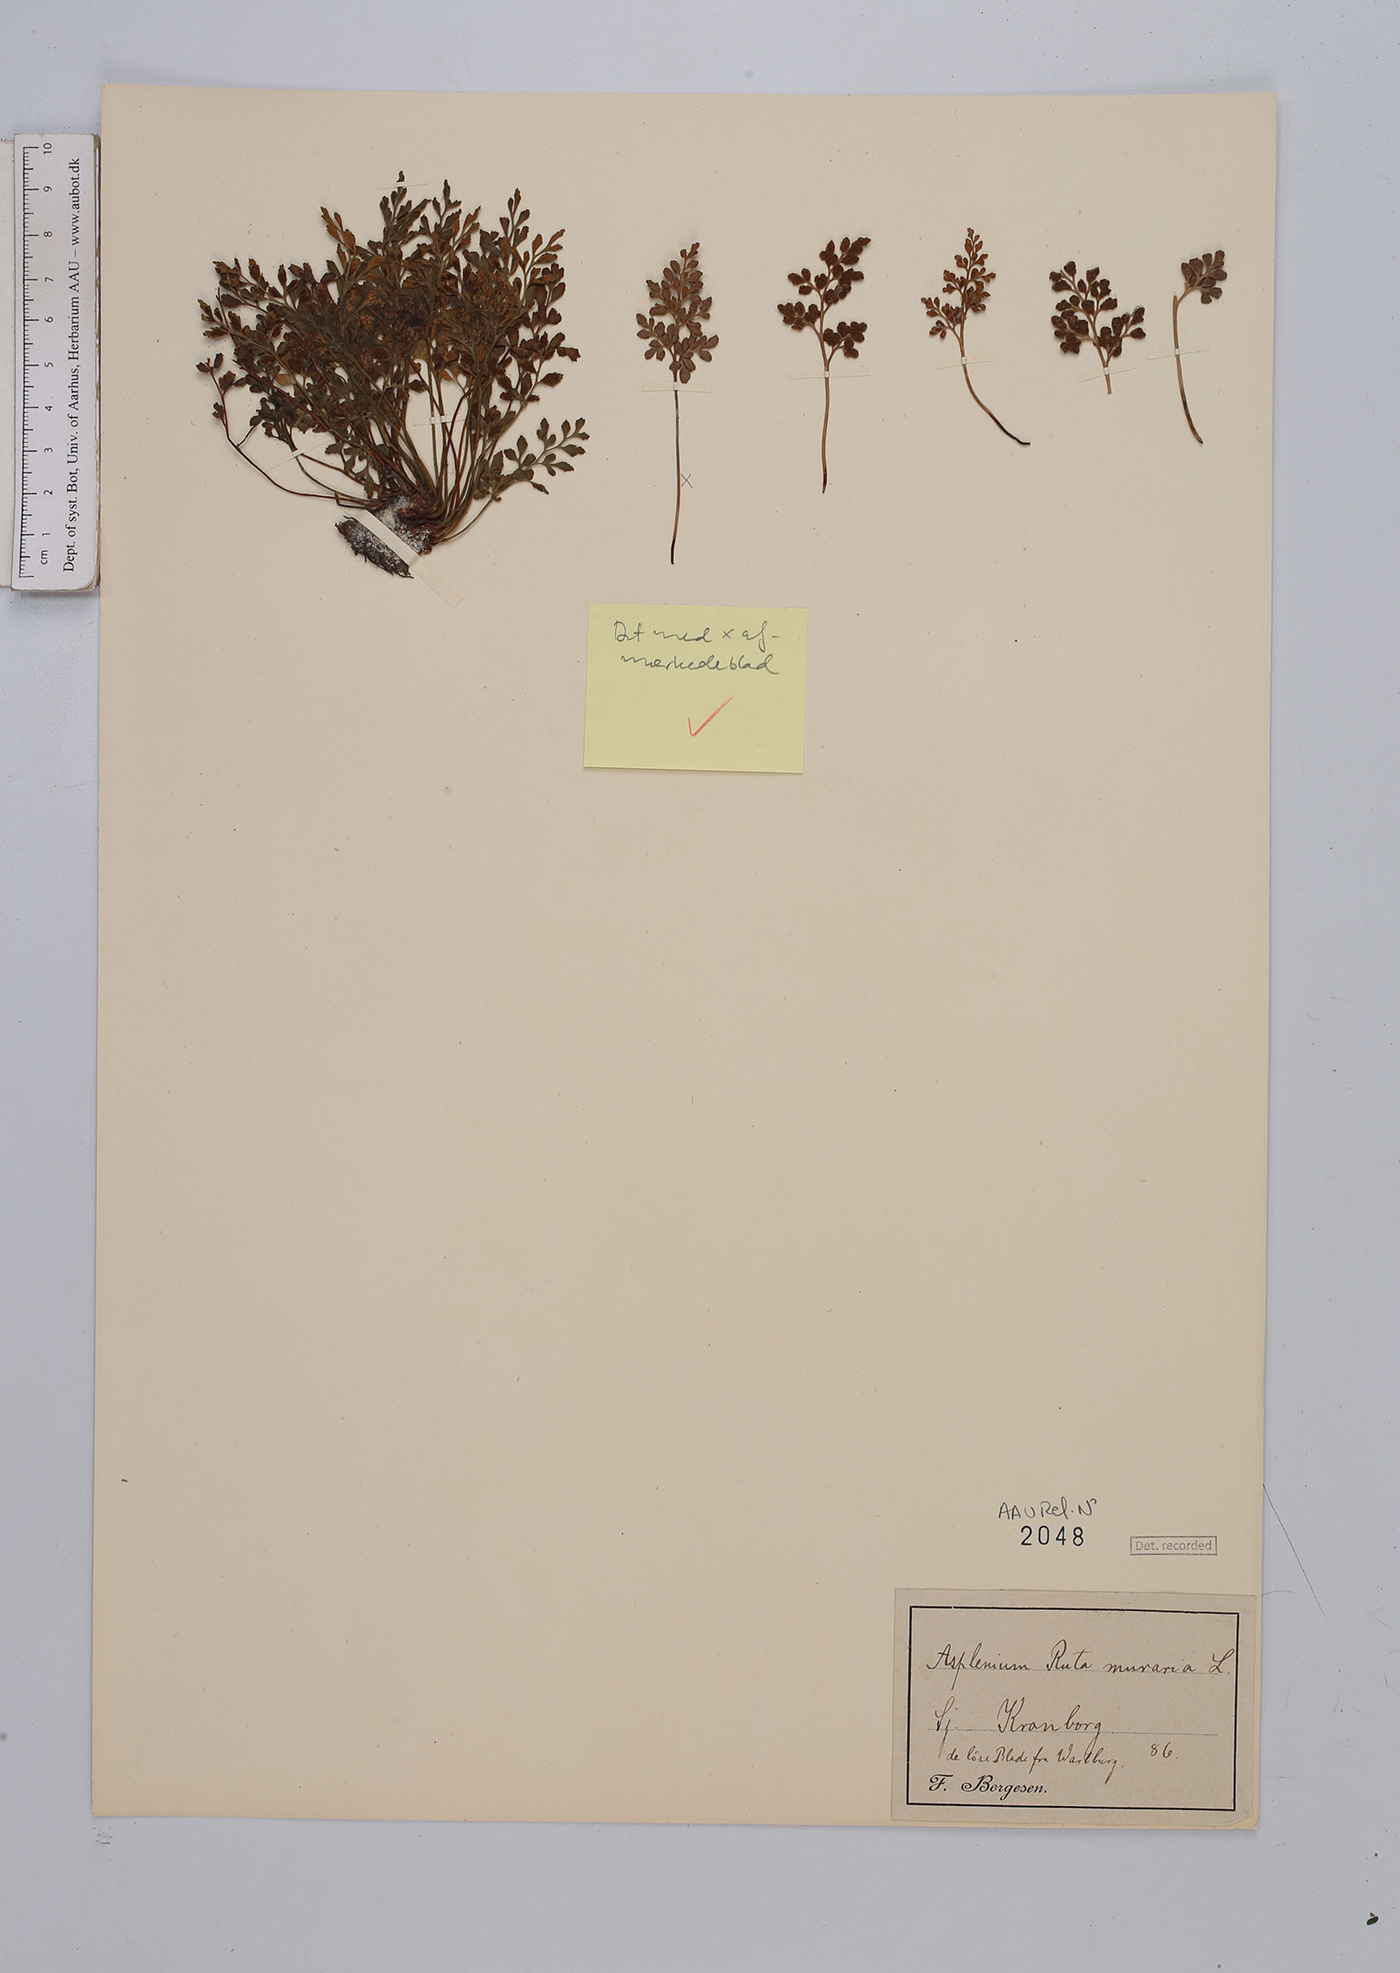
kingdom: Plantae
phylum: Tracheophyta
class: Polypodiopsida
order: Polypodiales
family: Aspleniaceae
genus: Asplenium
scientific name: Asplenium ruta-muraria
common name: Wall-rue
